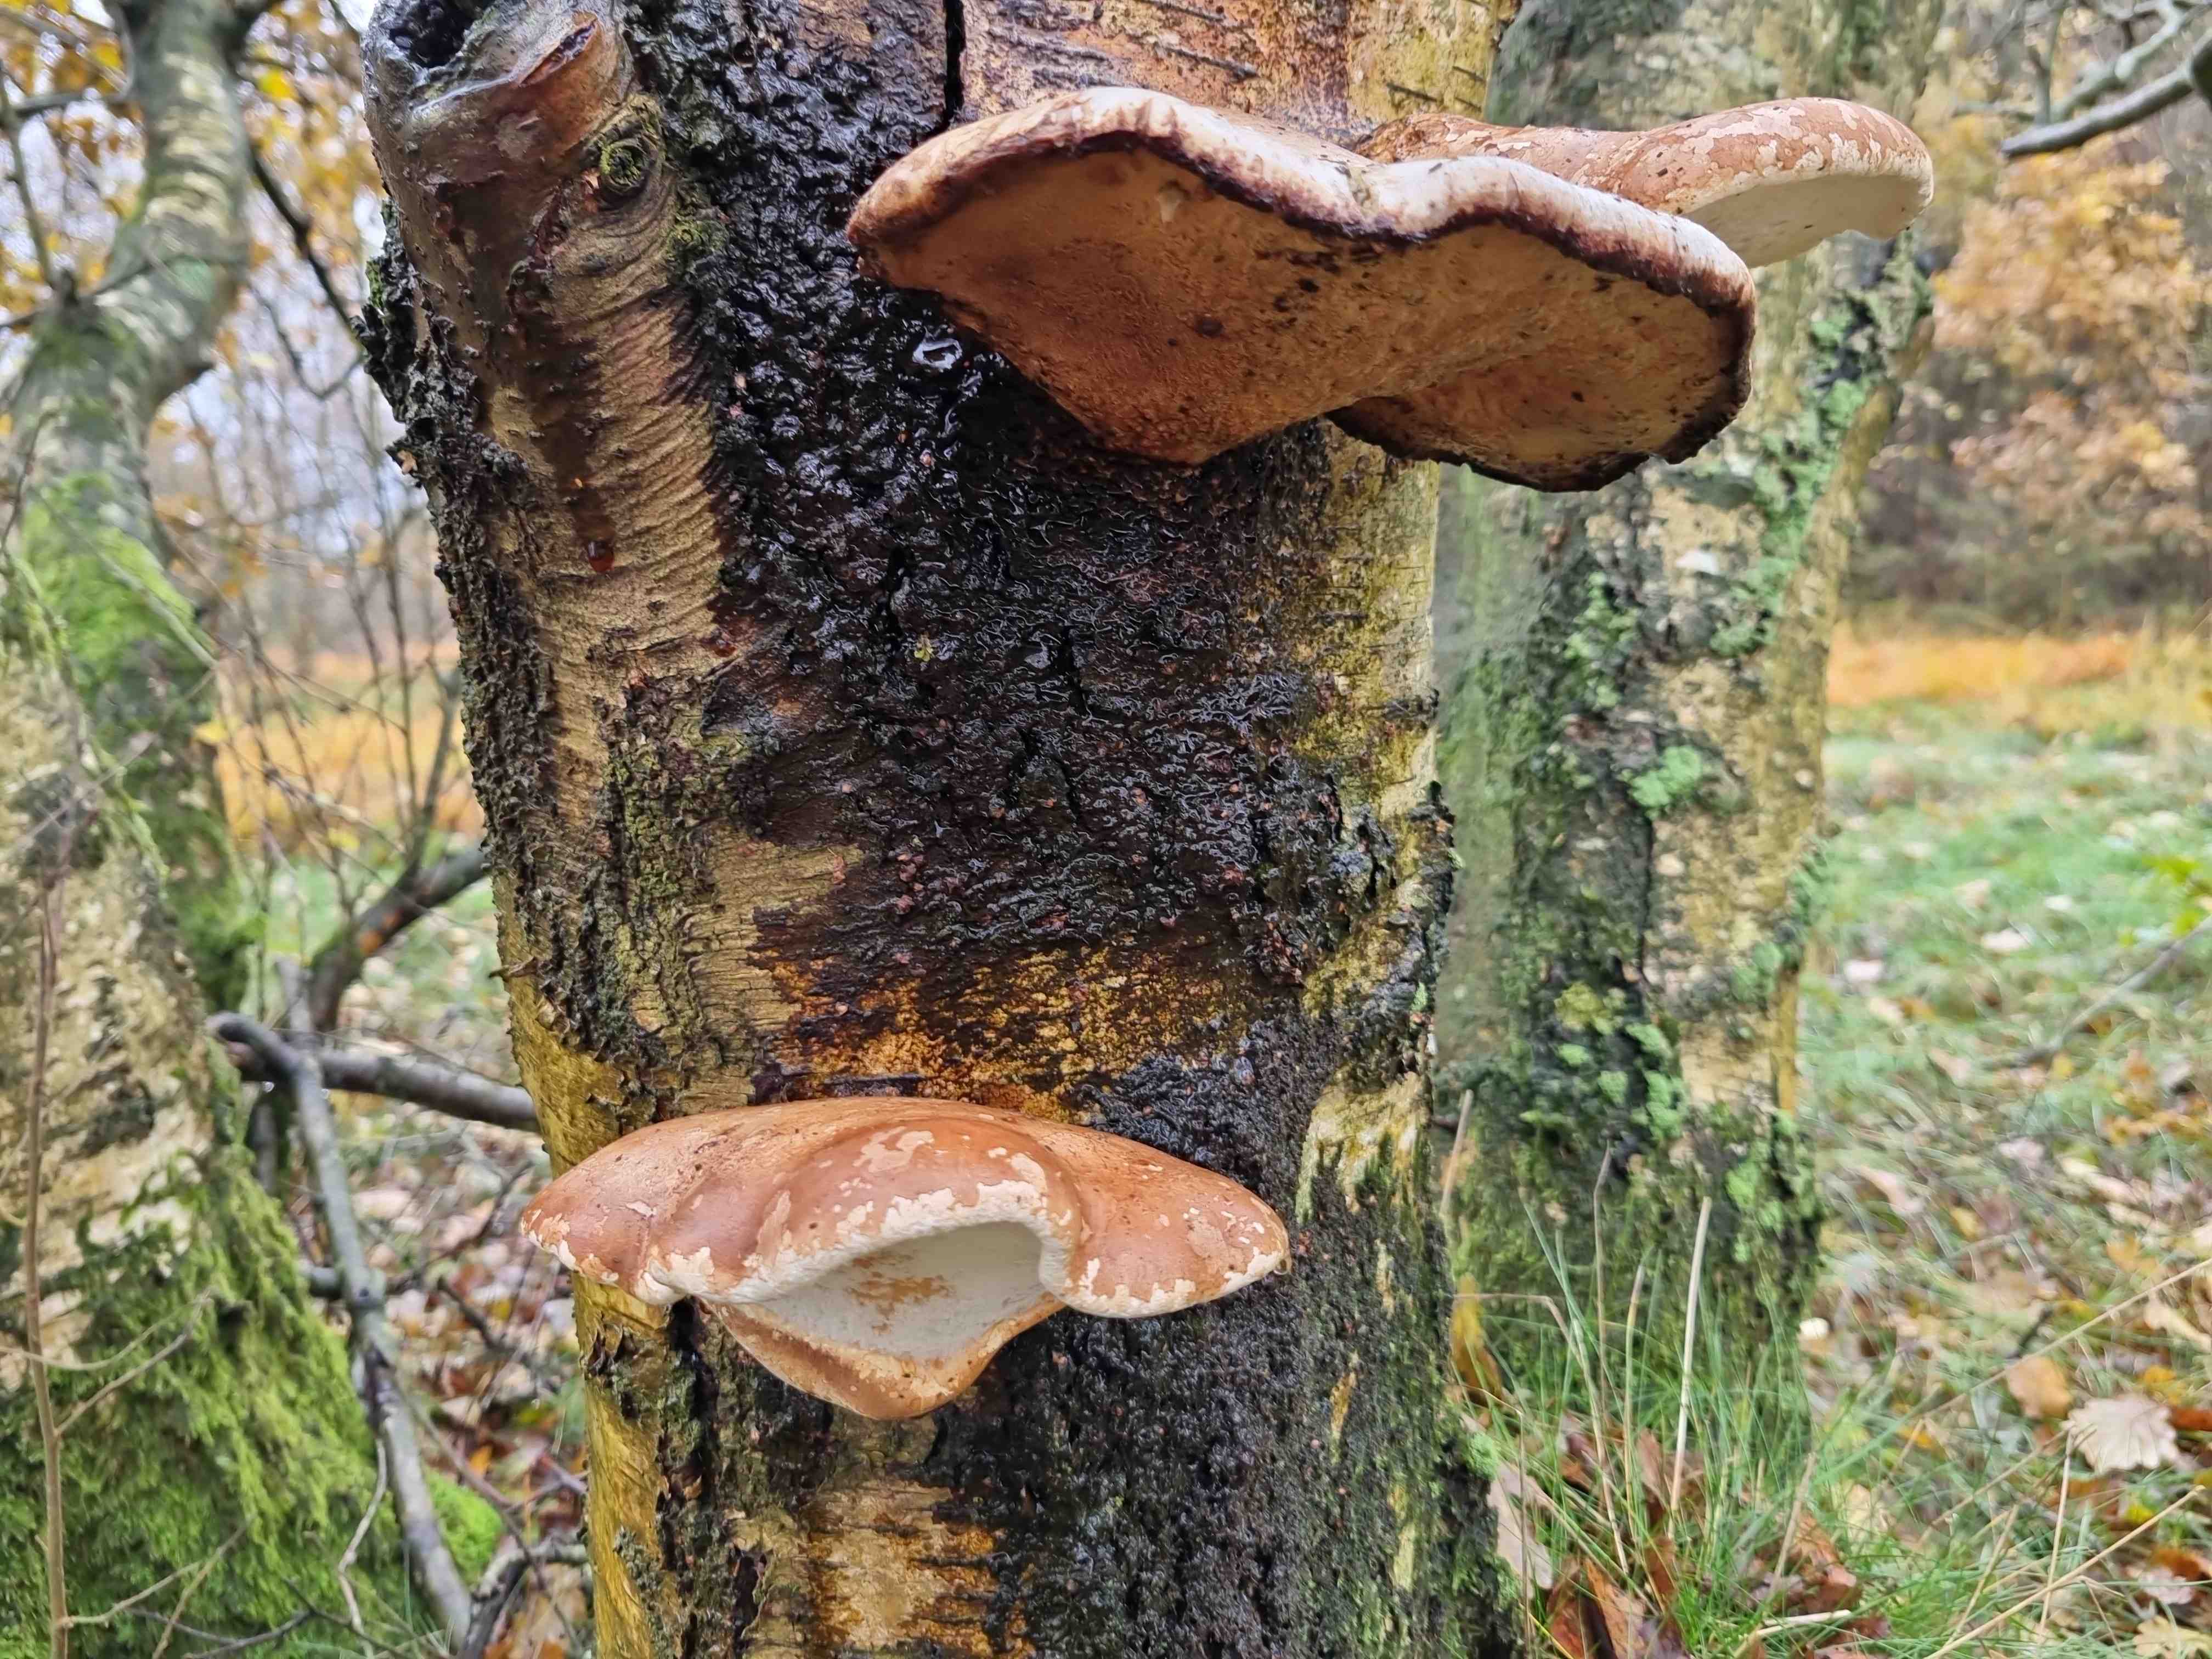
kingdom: Fungi
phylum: Basidiomycota
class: Agaricomycetes
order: Polyporales
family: Fomitopsidaceae
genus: Fomitopsis
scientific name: Fomitopsis betulina
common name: birkeporesvamp
